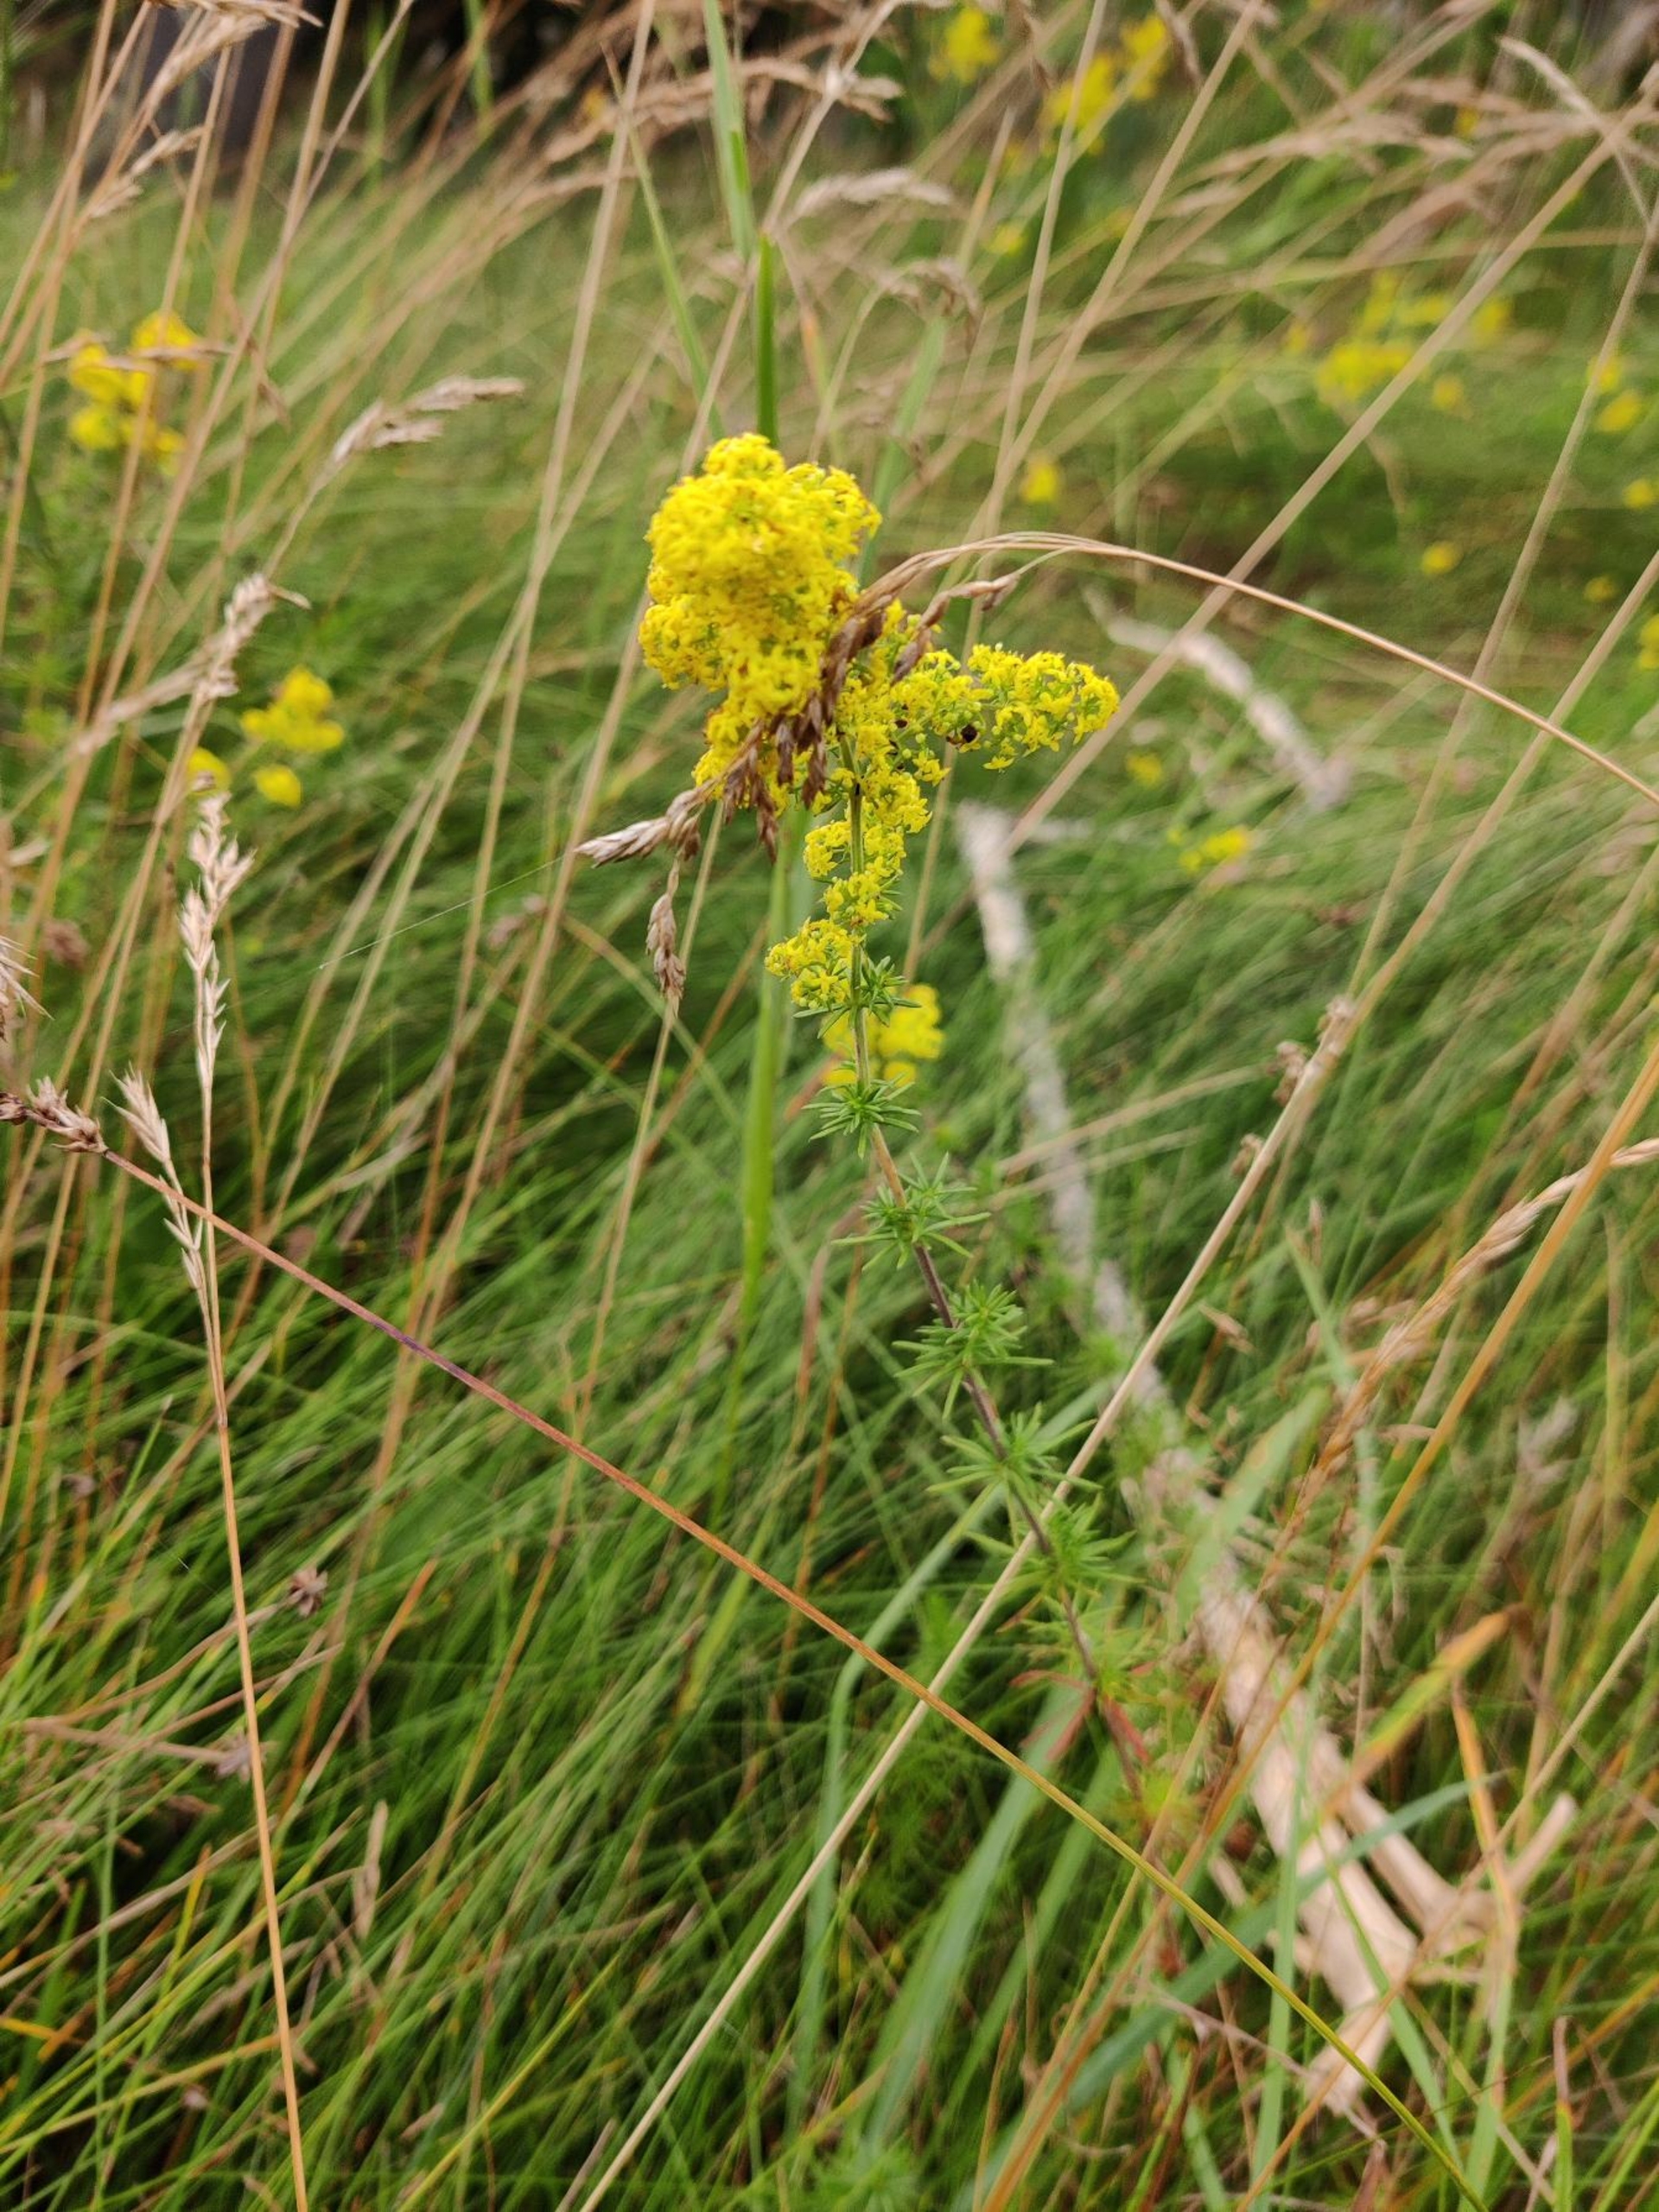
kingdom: Plantae
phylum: Tracheophyta
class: Magnoliopsida
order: Gentianales
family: Rubiaceae
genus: Galium
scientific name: Galium verum
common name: Gul snerre
